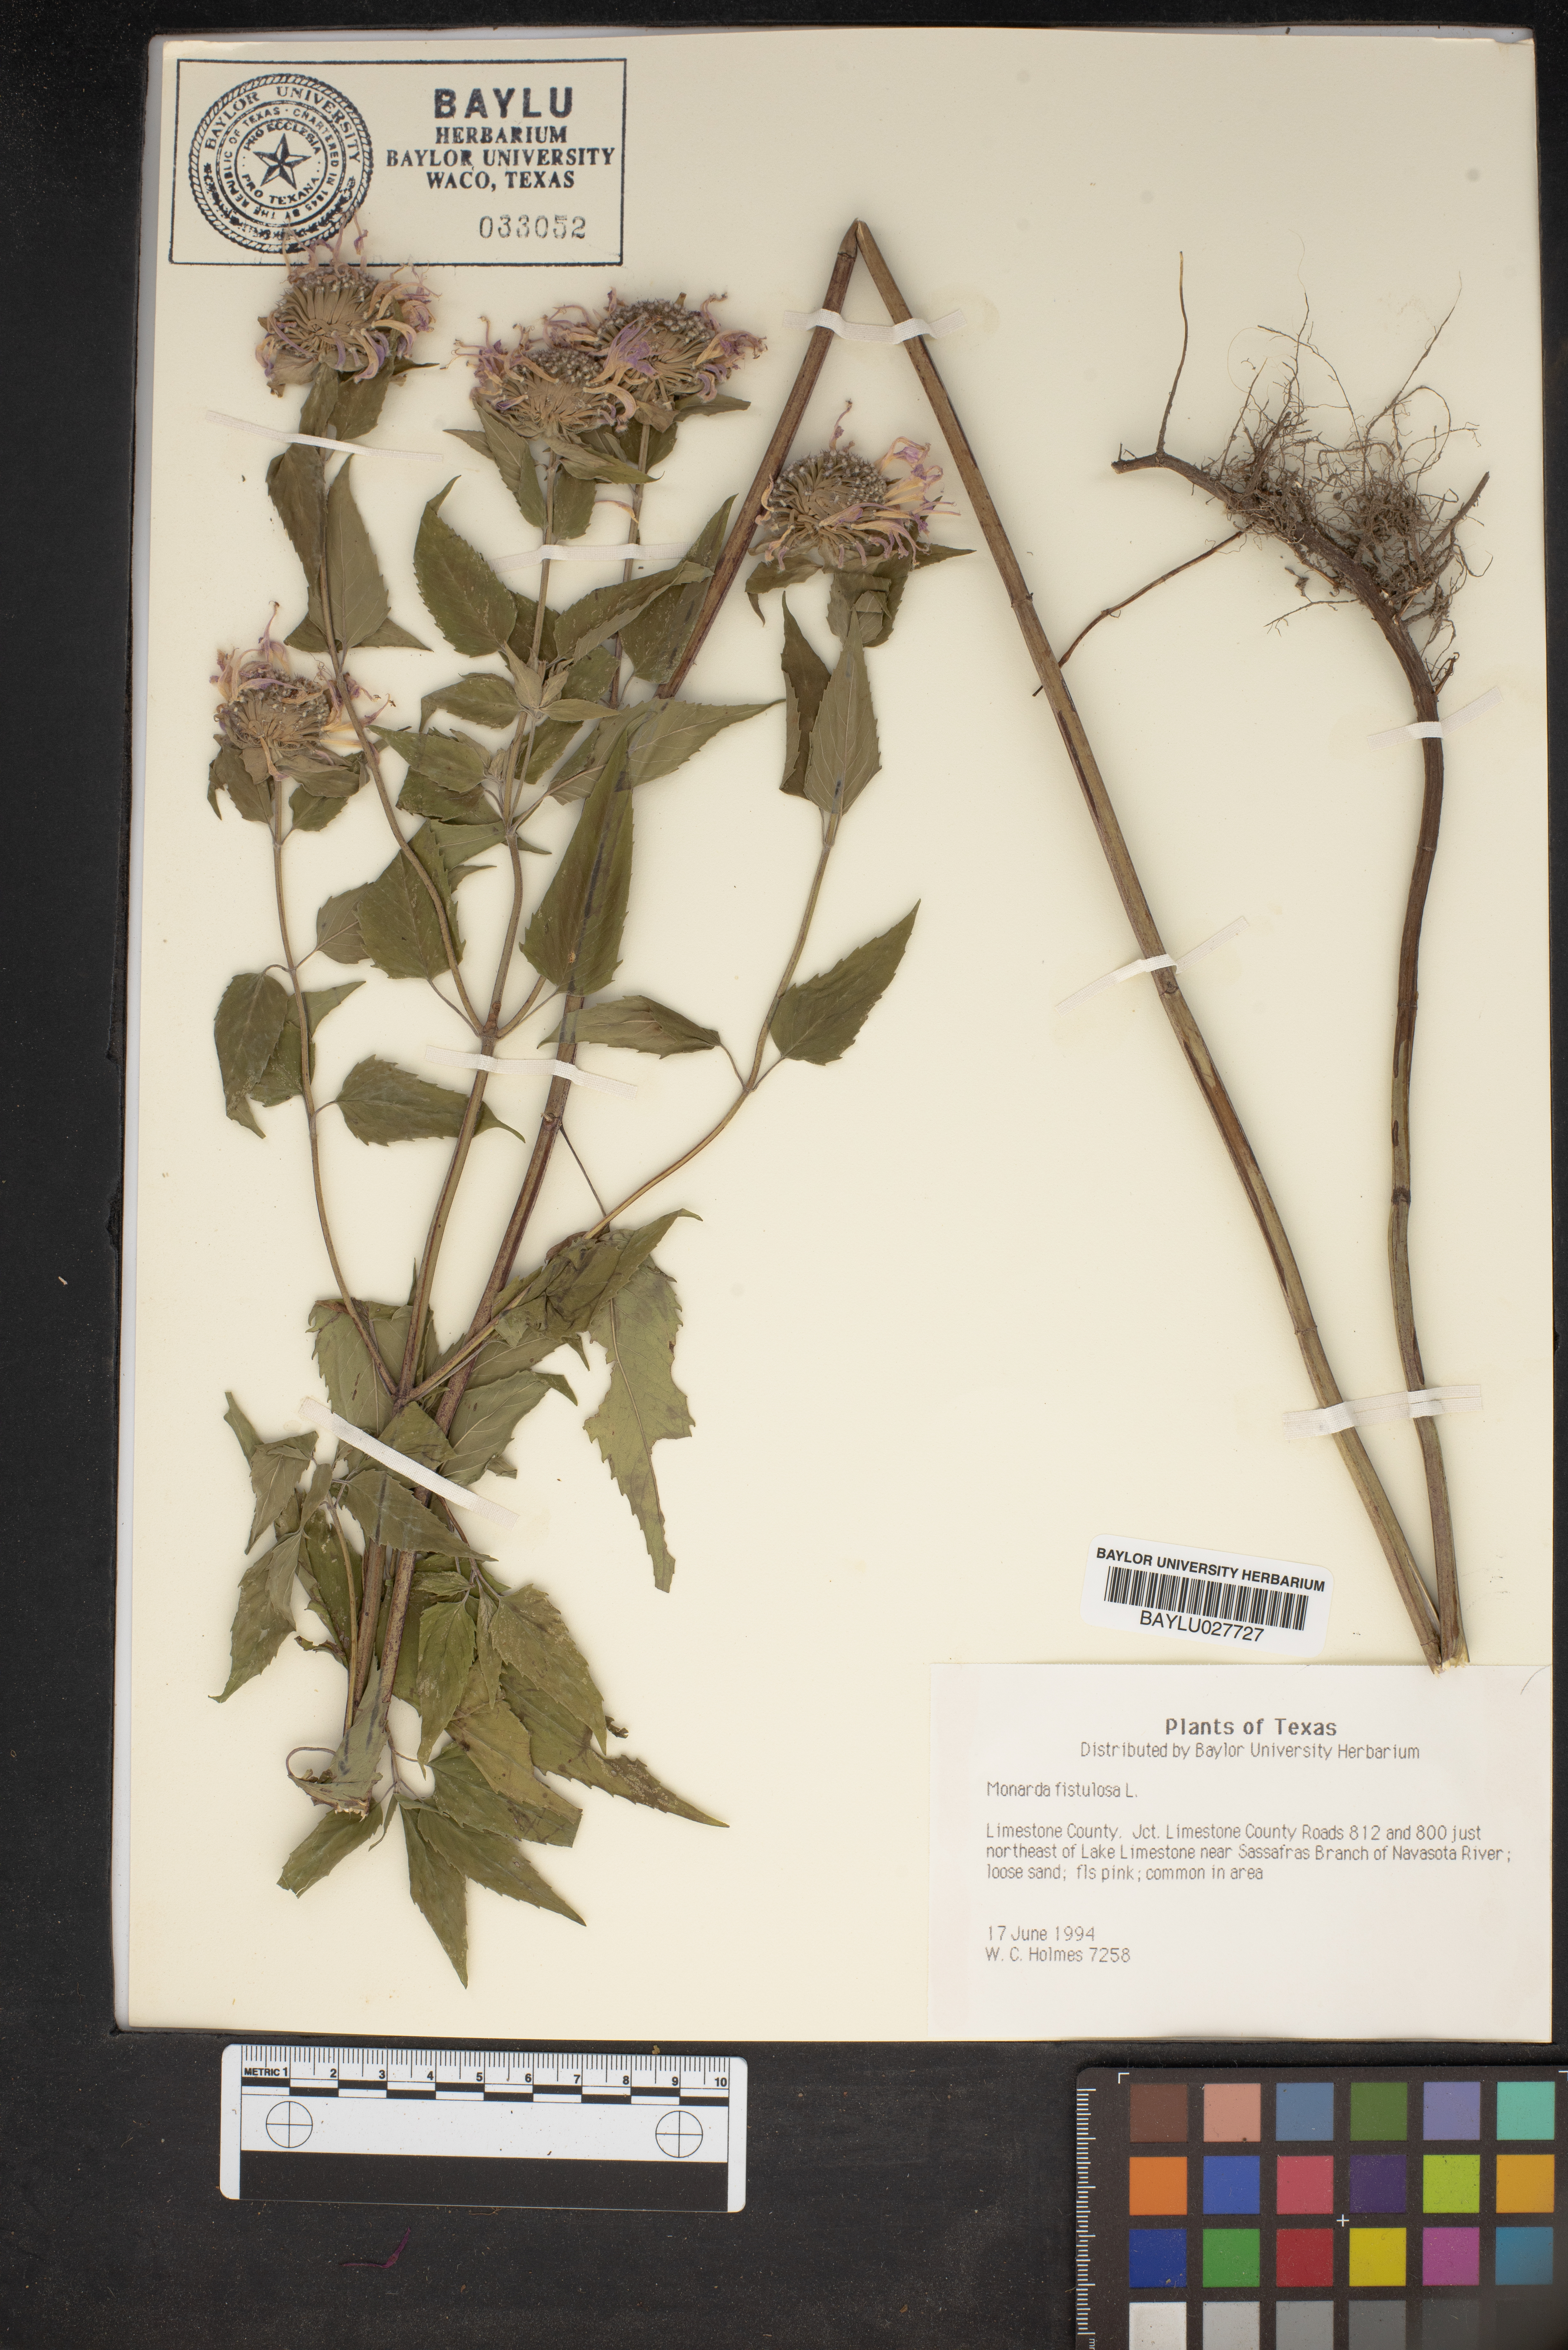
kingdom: Plantae
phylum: Tracheophyta
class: Magnoliopsida
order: Lamiales
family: Lamiaceae
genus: Monarda
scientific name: Monarda fistulosa
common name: Purple beebalm
